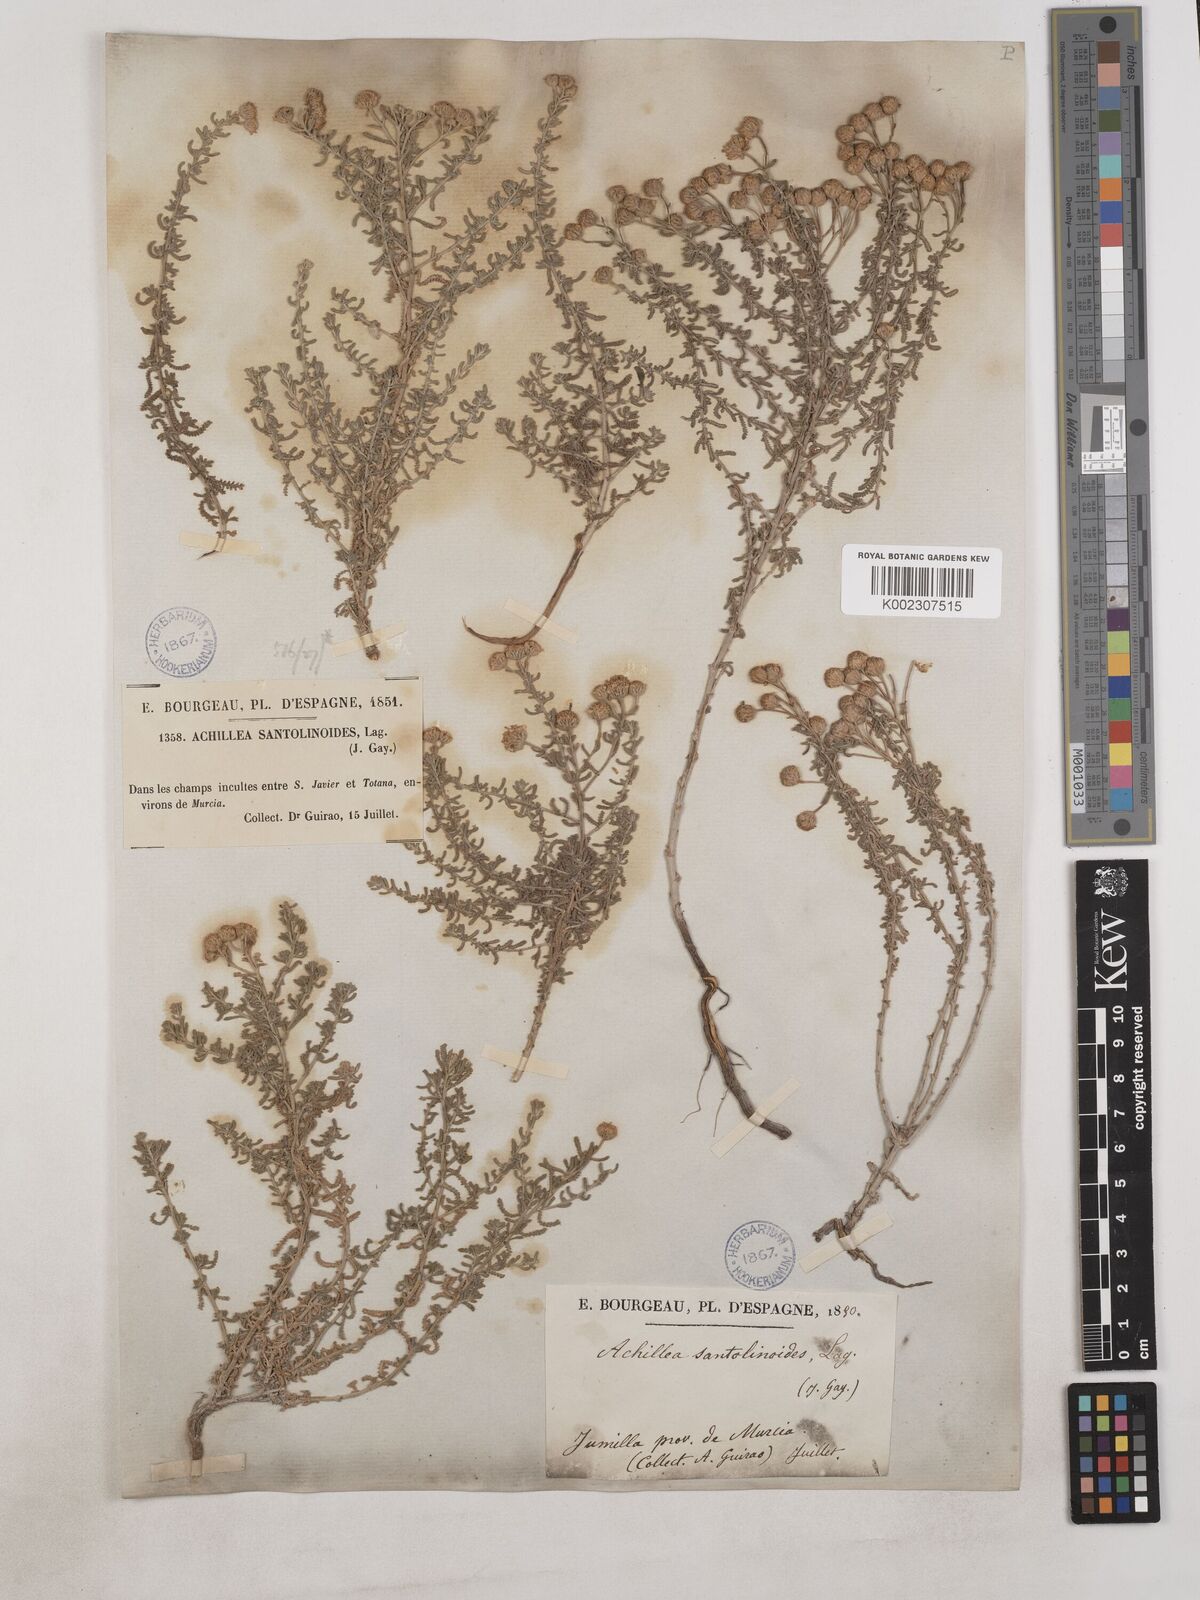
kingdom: Plantae
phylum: Tracheophyta
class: Magnoliopsida
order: Asterales
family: Asteraceae
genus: Achillea
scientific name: Achillea santolinoides
